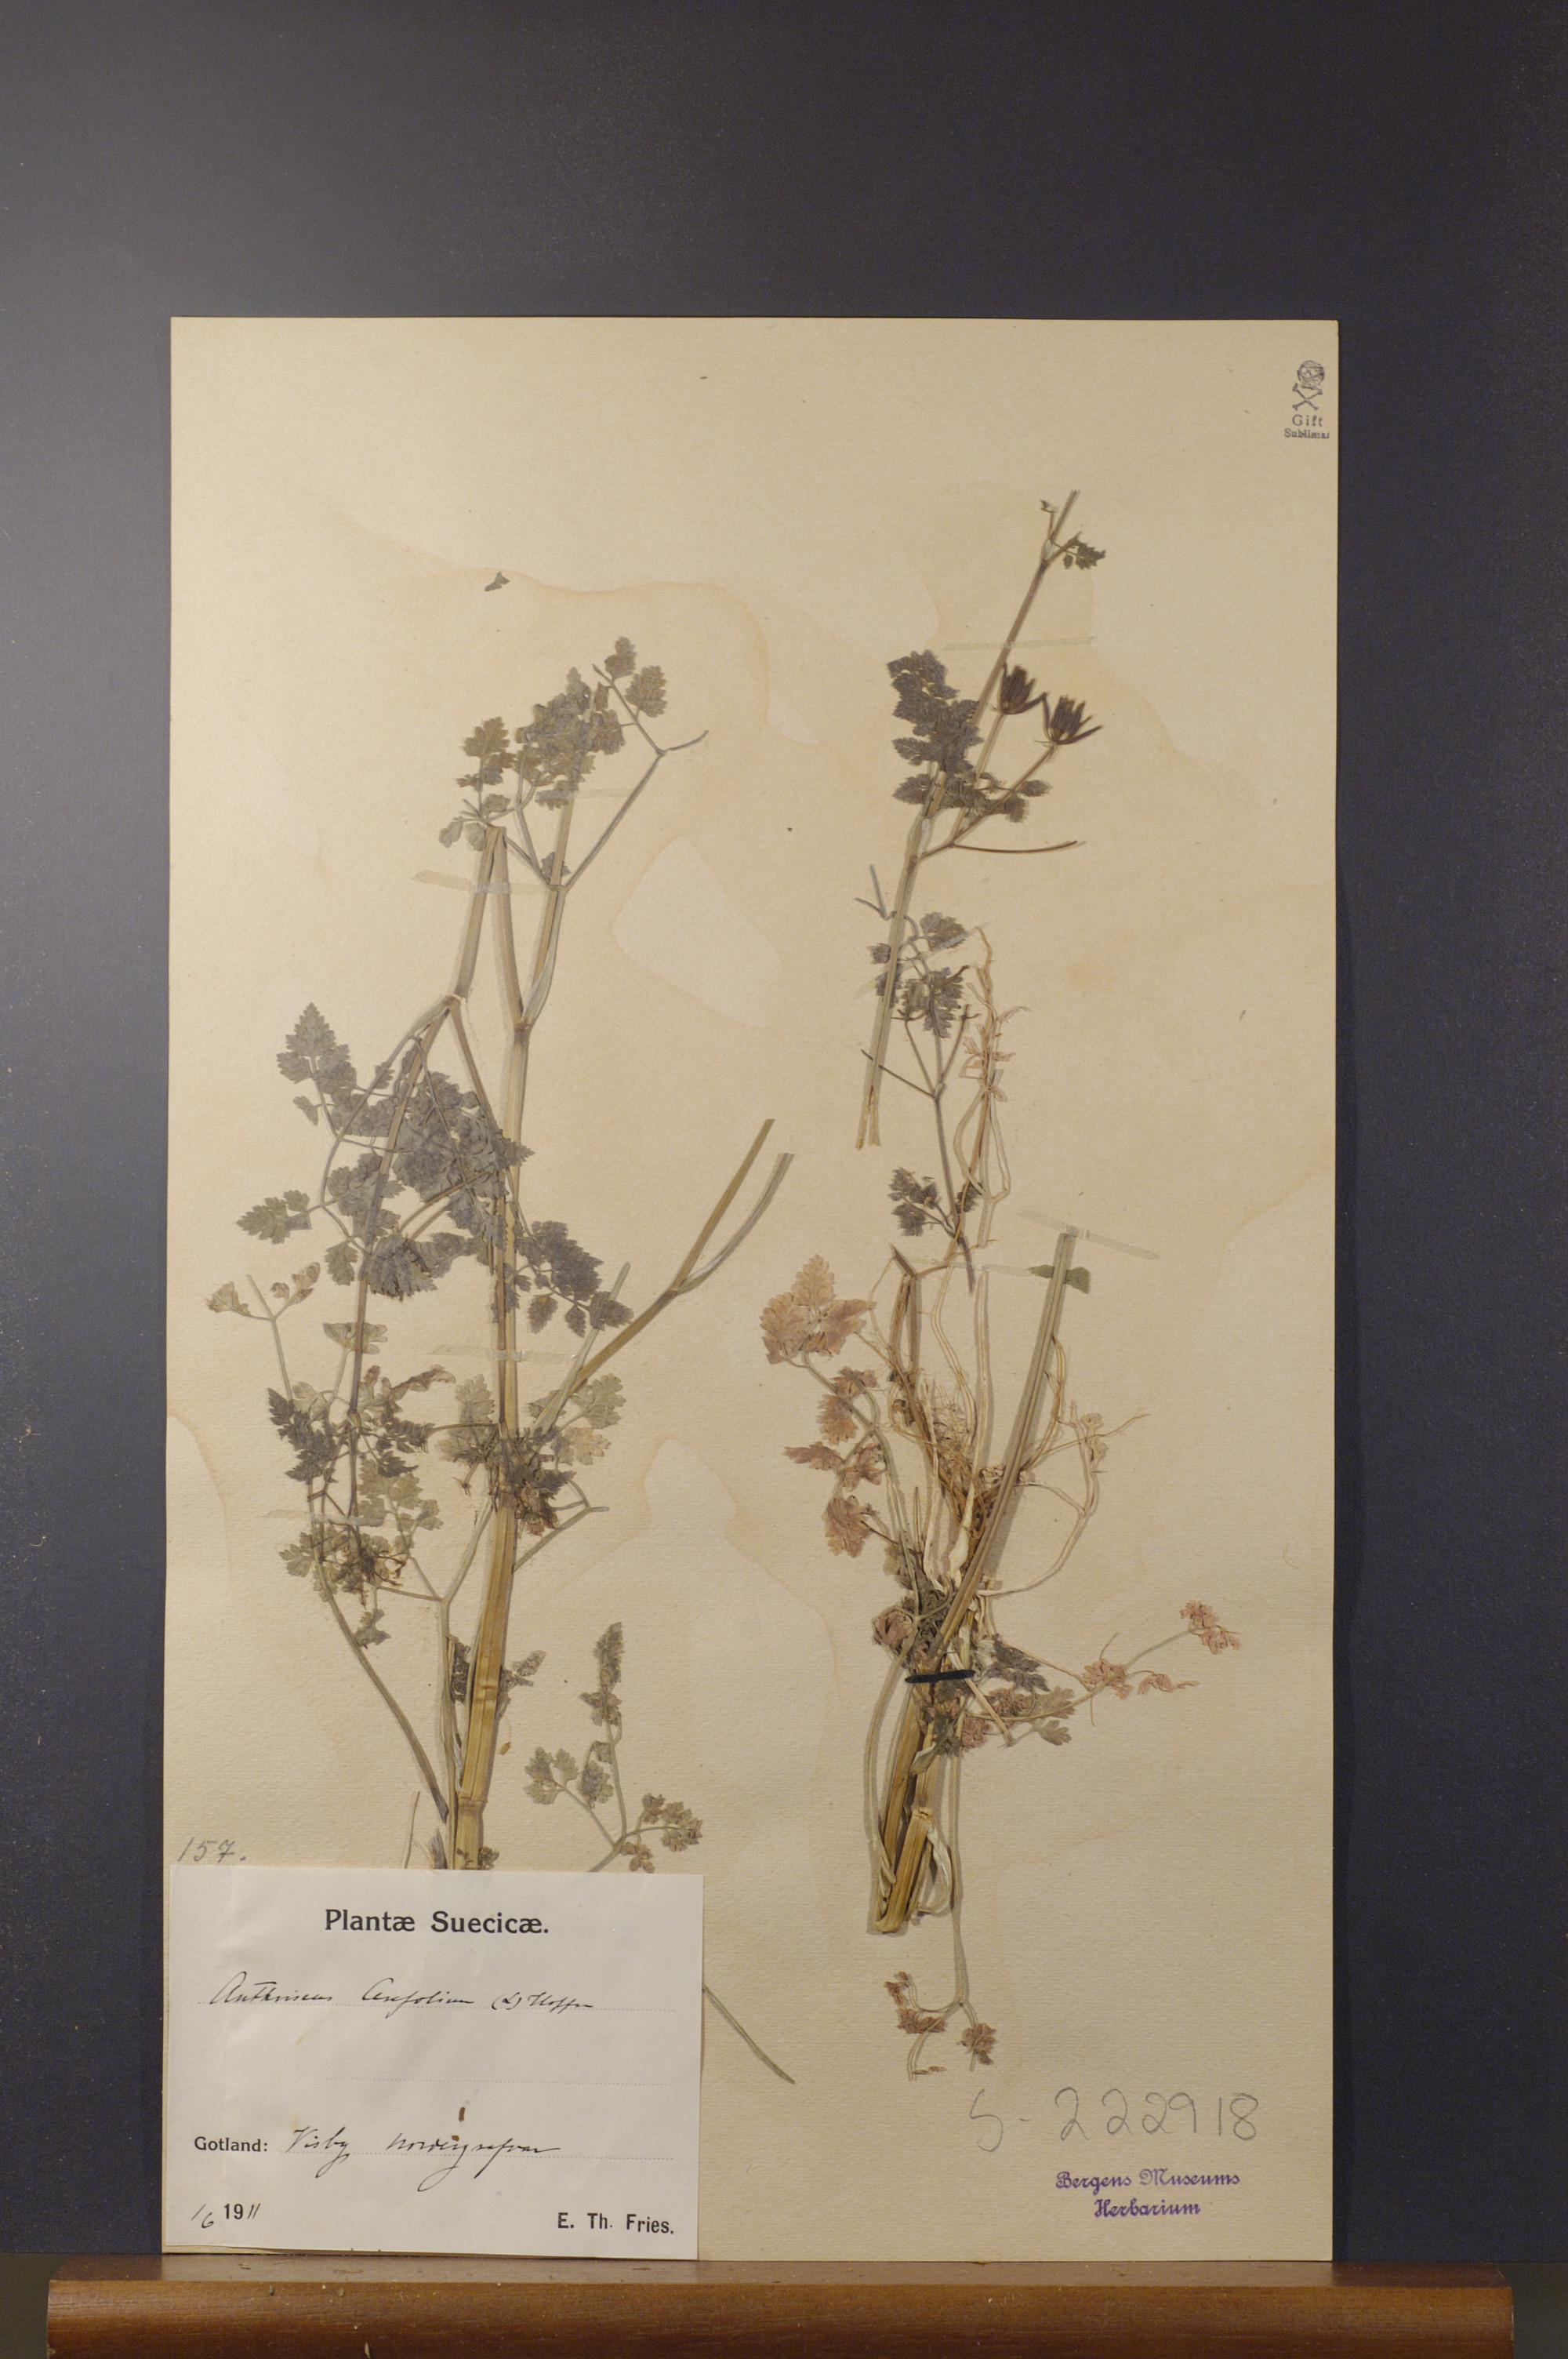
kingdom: Plantae
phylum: Tracheophyta
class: Magnoliopsida
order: Apiales
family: Apiaceae
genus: Anthriscus
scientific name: Anthriscus cerefolium
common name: Garden chervil
